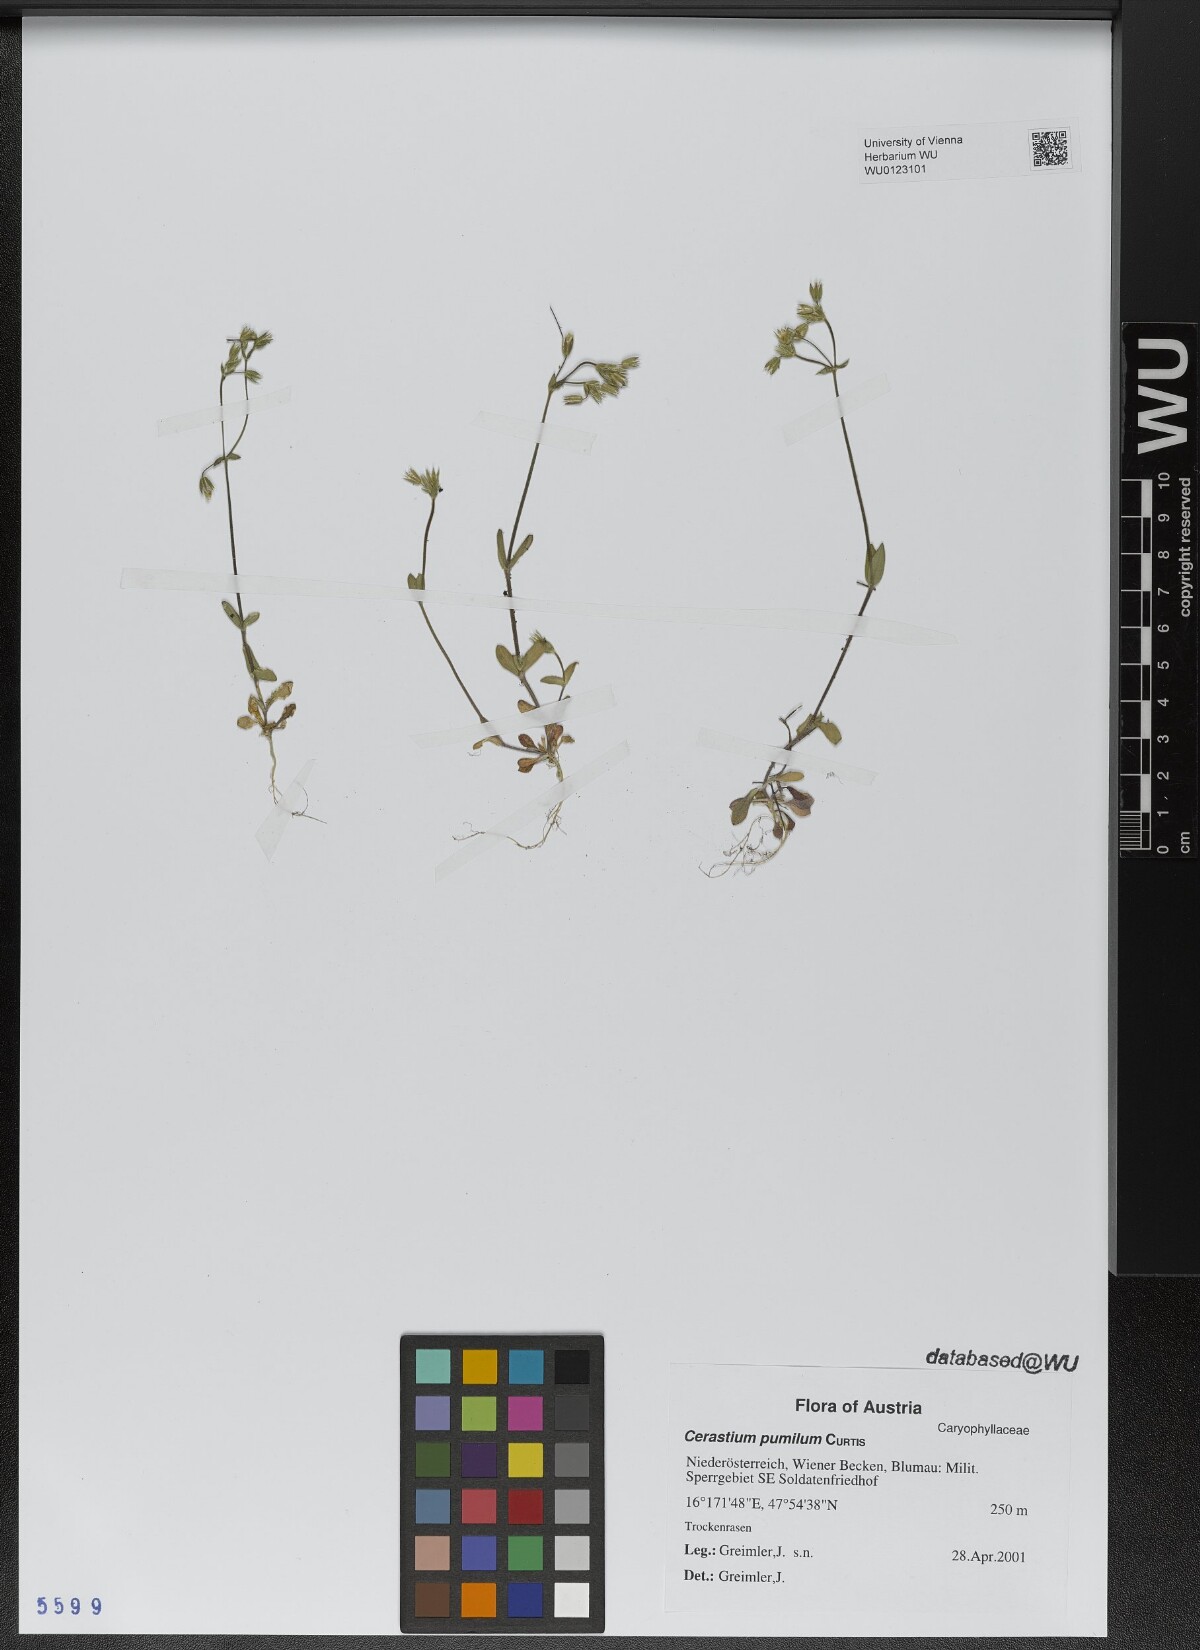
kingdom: Plantae
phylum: Tracheophyta
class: Magnoliopsida
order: Caryophyllales
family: Caryophyllaceae
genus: Cerastium
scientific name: Cerastium pumilum
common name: Dwarf mouse-ear
